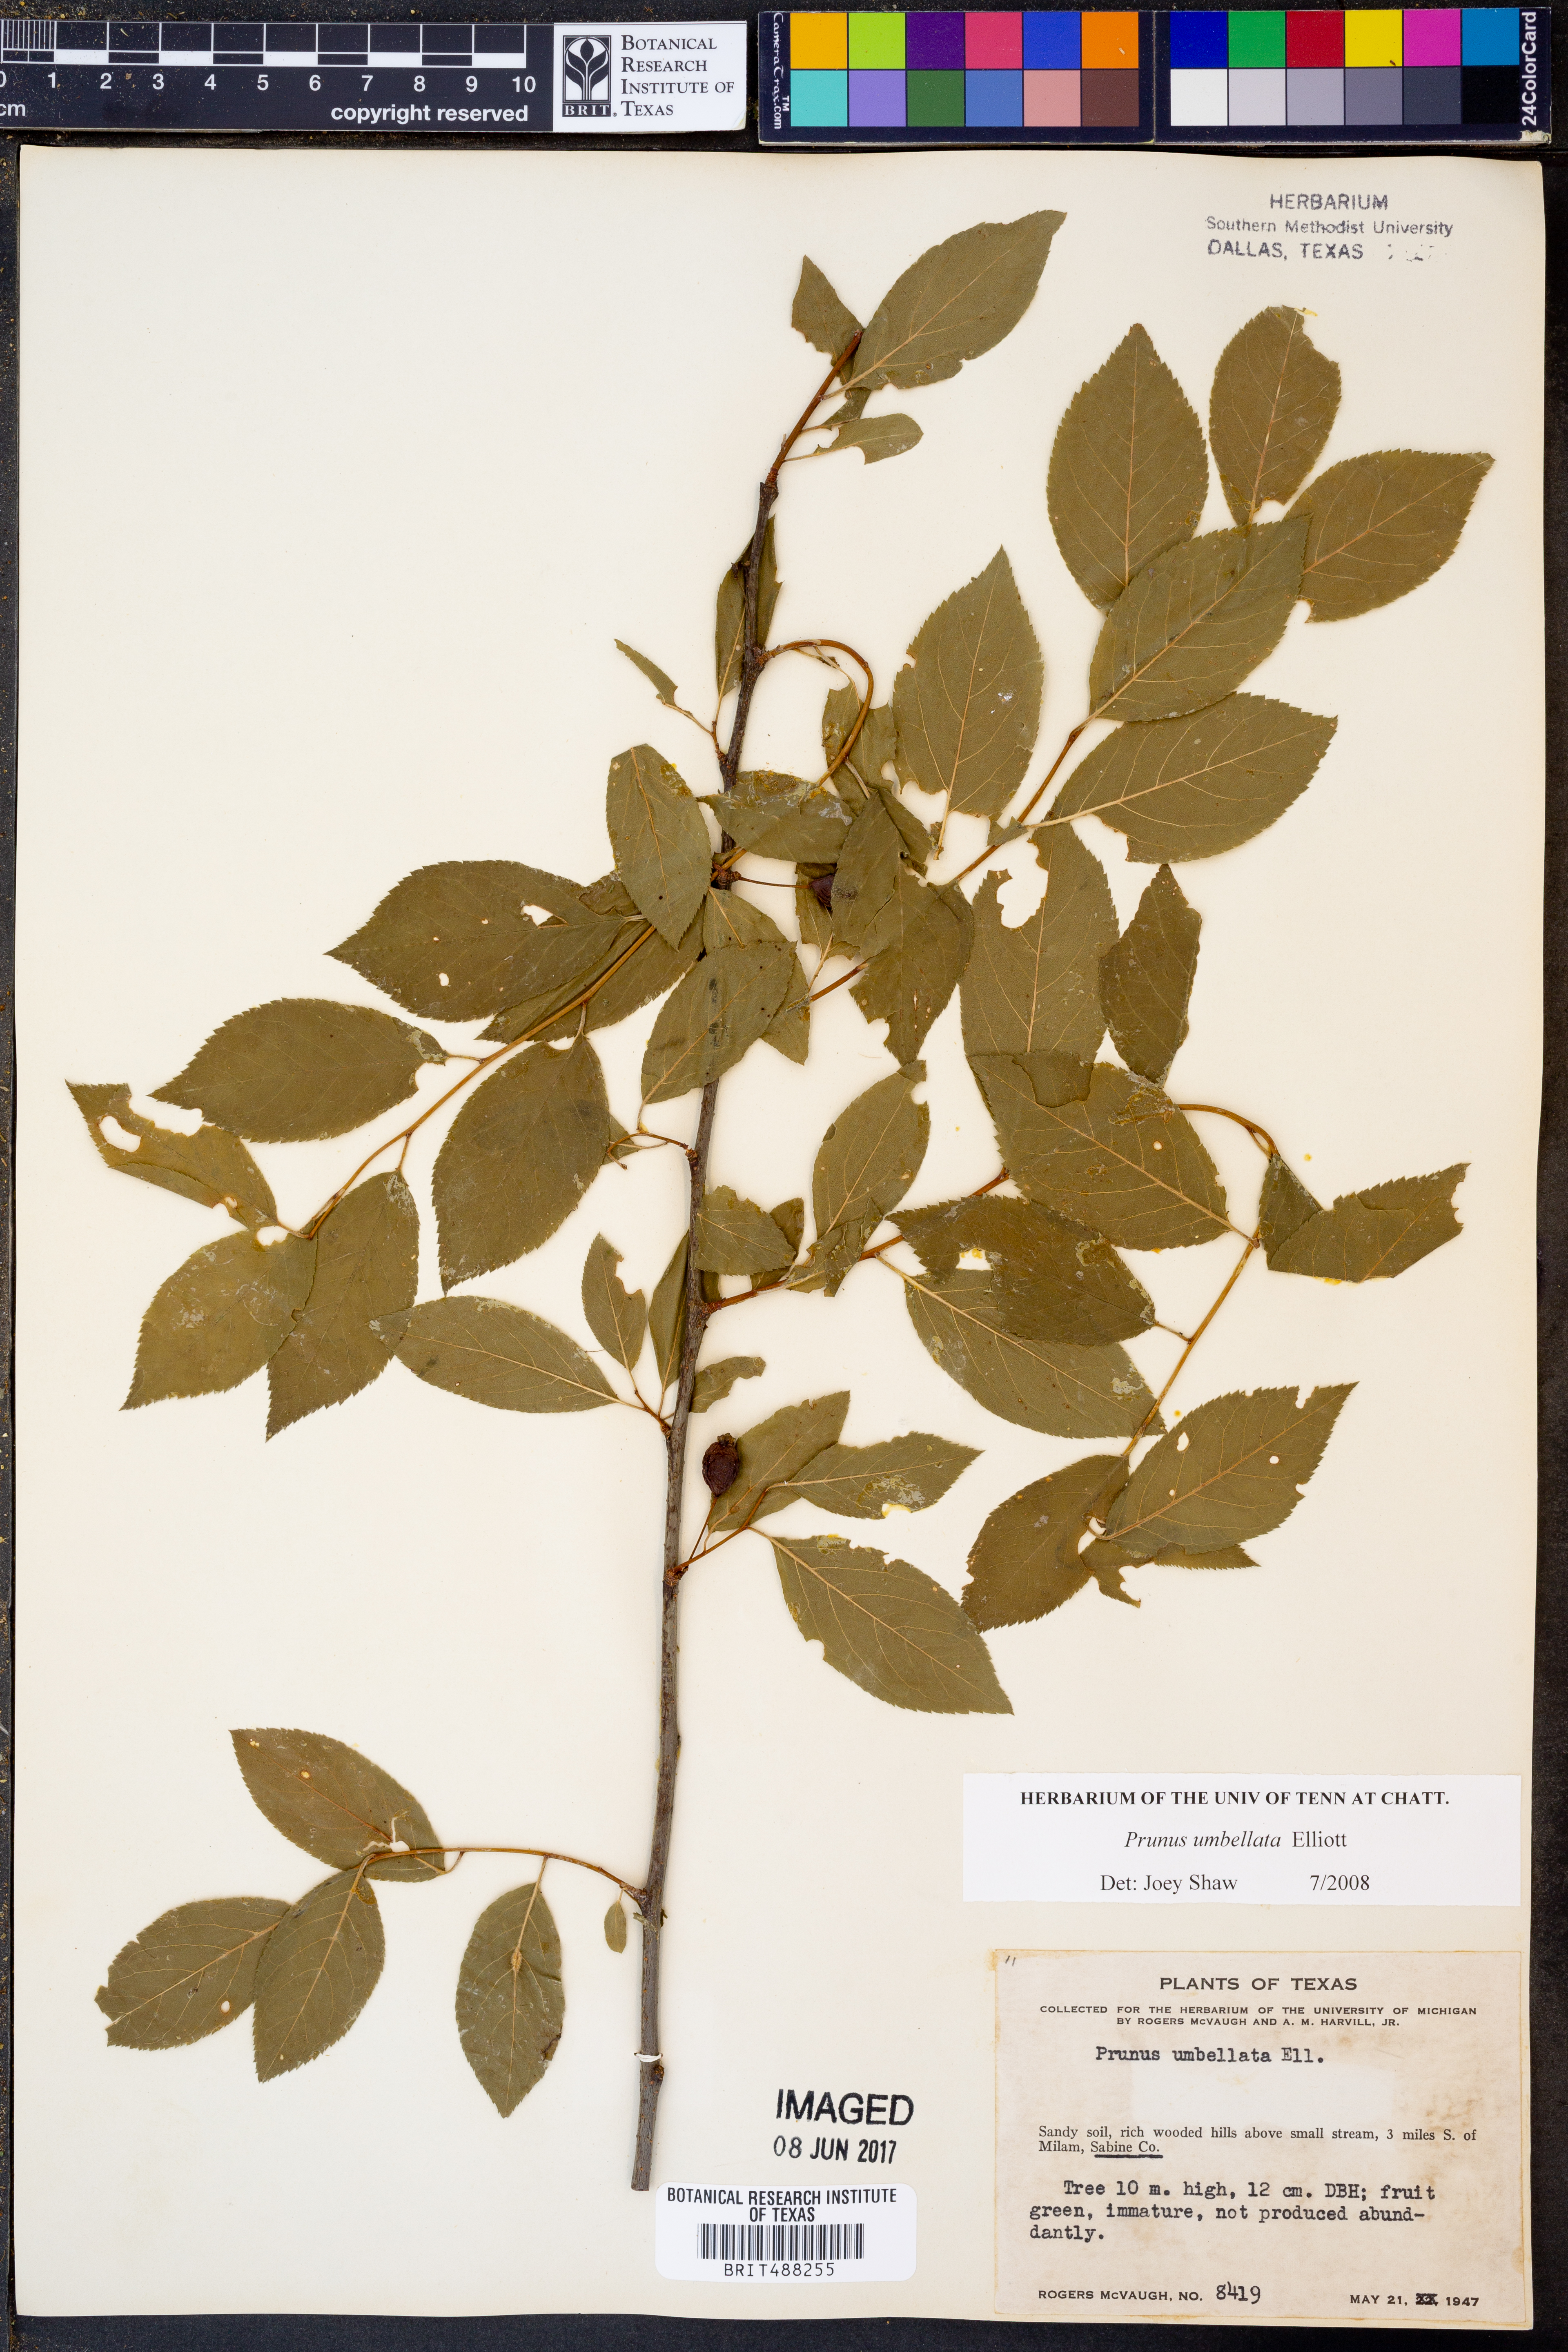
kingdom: Plantae
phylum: Tracheophyta
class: Magnoliopsida
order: Rosales
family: Rosaceae
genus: Prunus
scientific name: Prunus umbellata
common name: Allegheny plum
